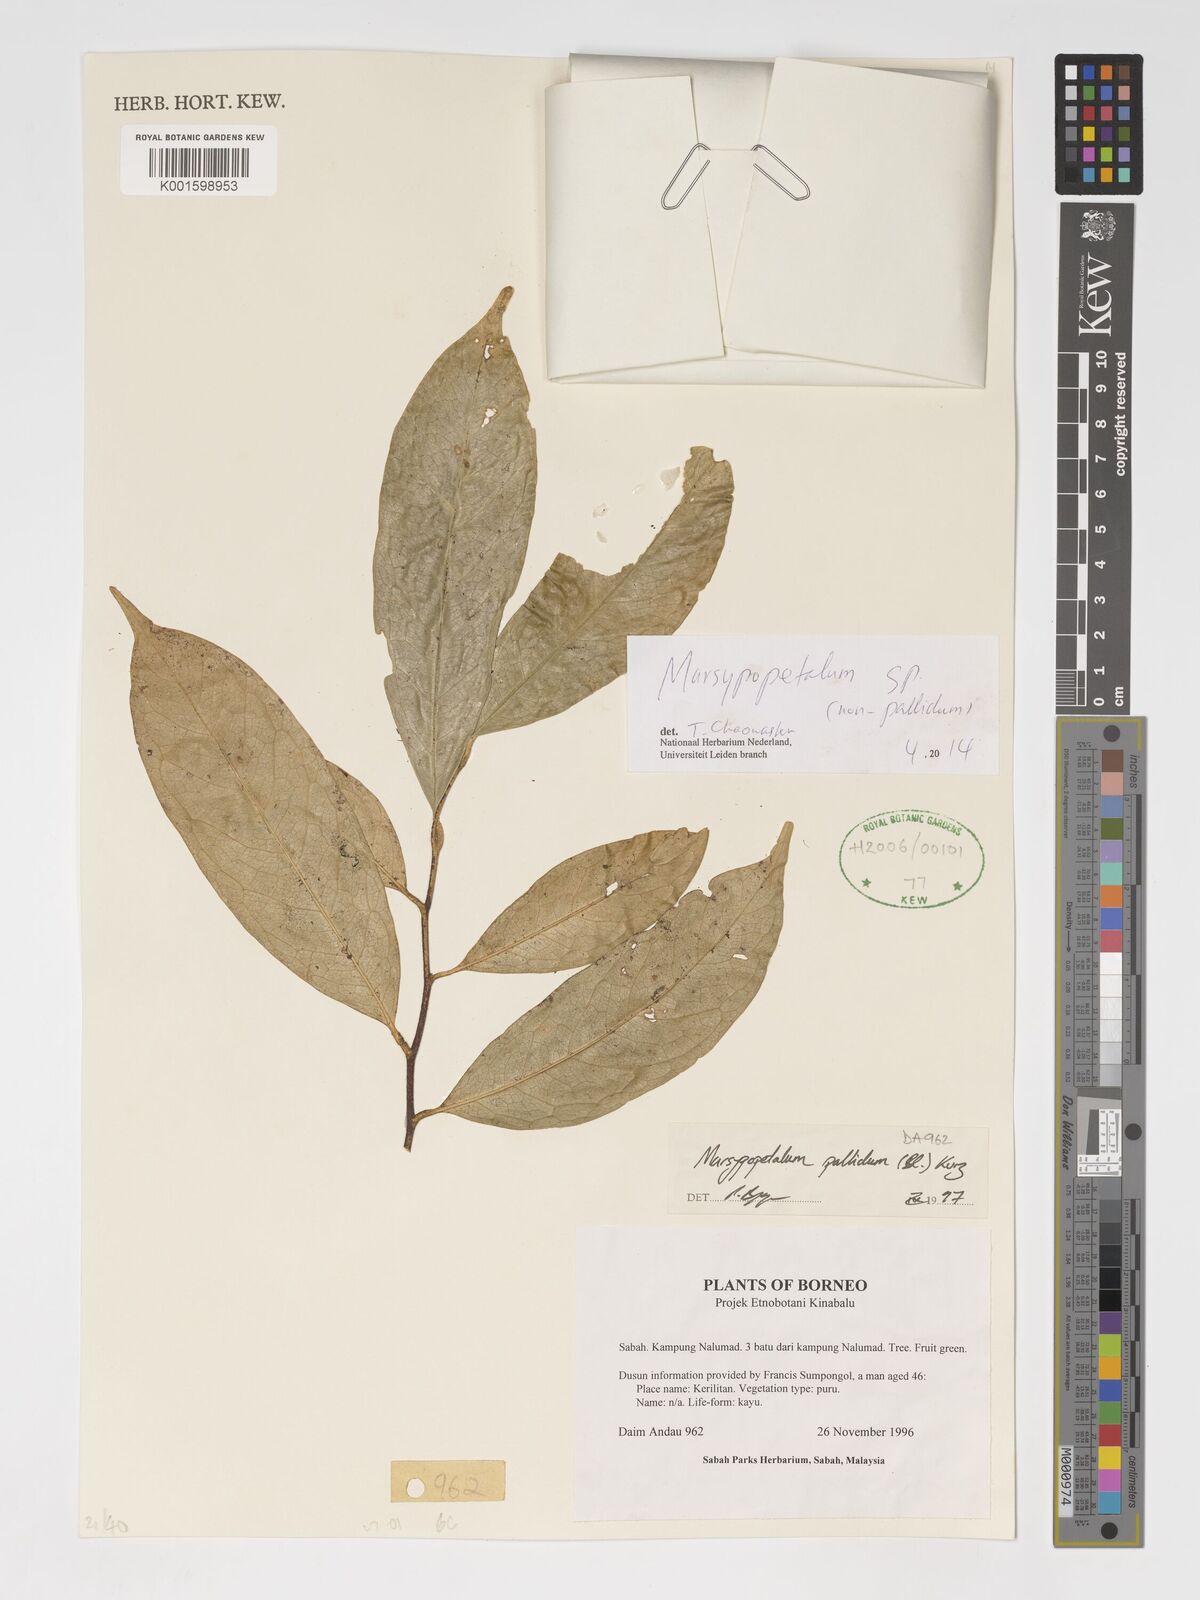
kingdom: Plantae
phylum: Tracheophyta
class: Magnoliopsida
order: Magnoliales
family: Annonaceae
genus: Marsypopetalum
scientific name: Marsypopetalum
